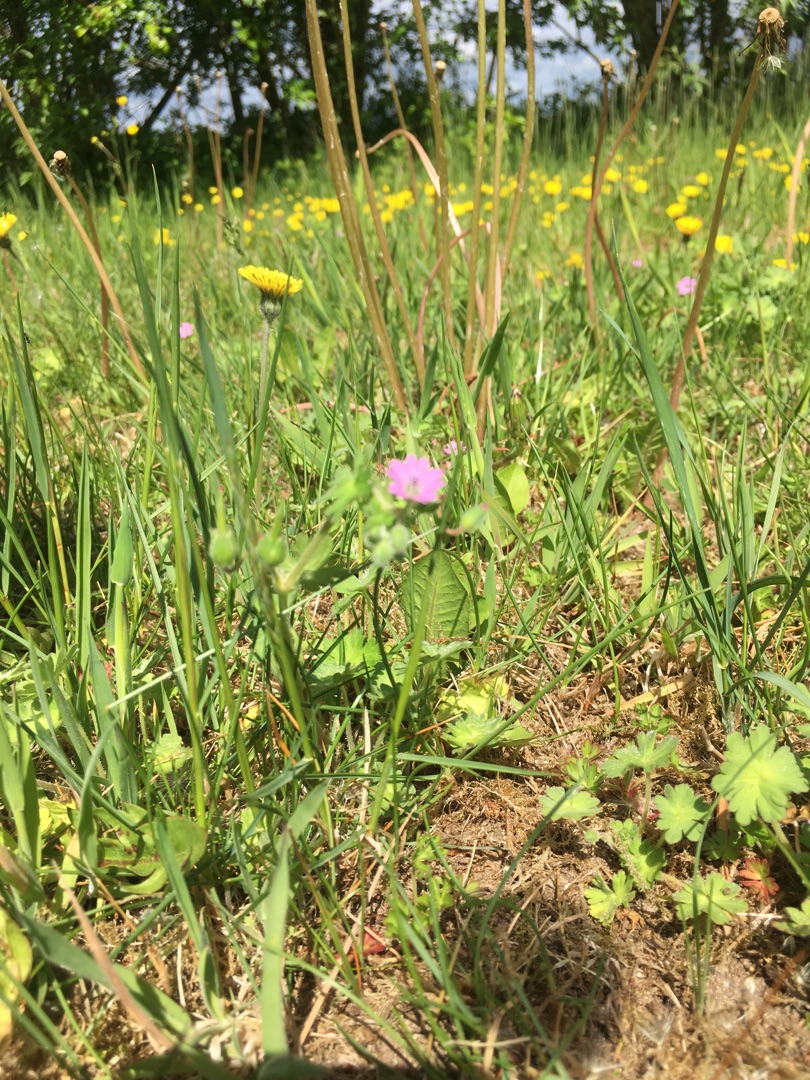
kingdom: Plantae
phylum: Tracheophyta
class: Magnoliopsida
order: Geraniales
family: Geraniaceae
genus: Geranium
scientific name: Geranium molle
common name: Blød storkenæb
